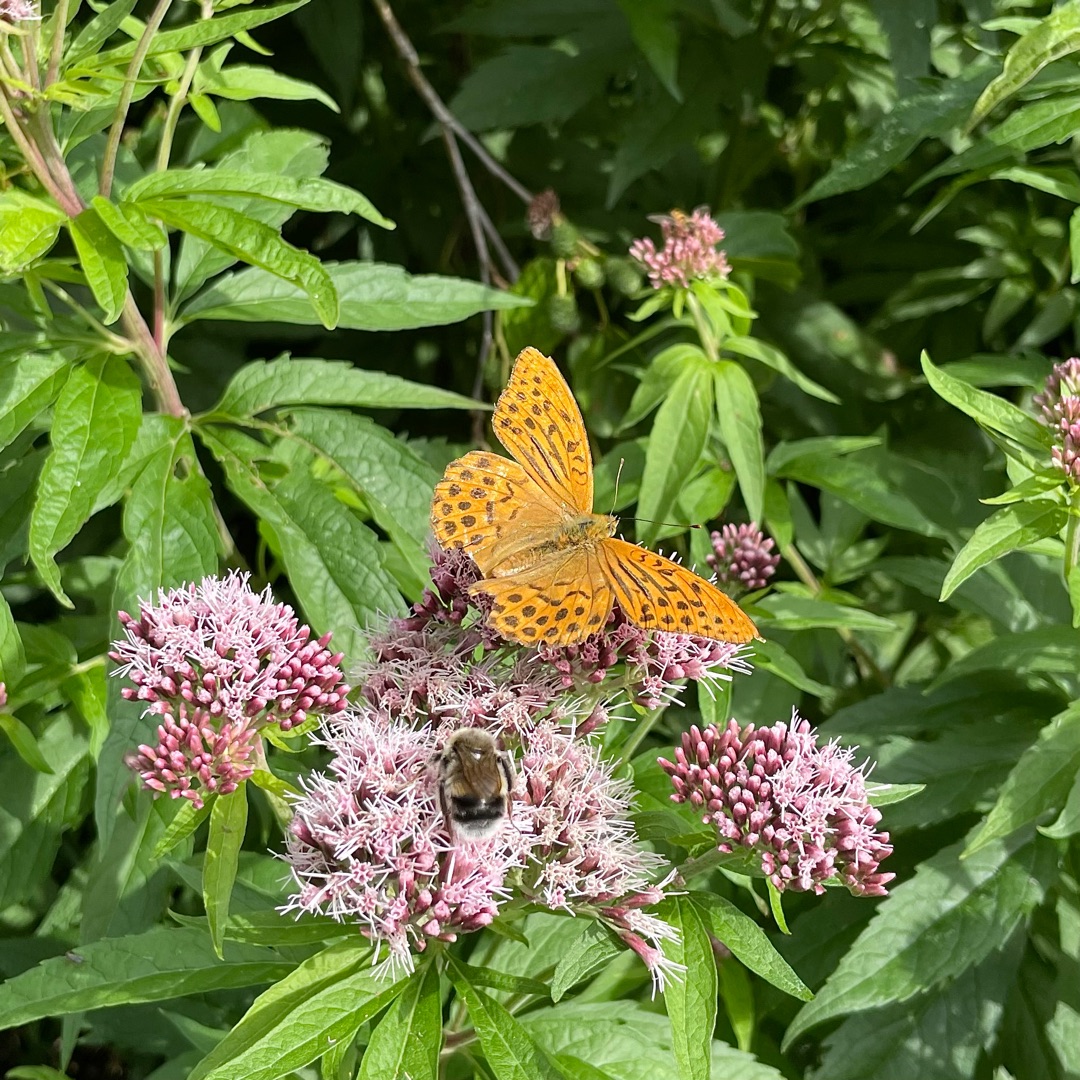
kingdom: Animalia
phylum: Arthropoda
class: Insecta
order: Lepidoptera
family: Nymphalidae
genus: Argynnis
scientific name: Argynnis paphia
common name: Kejserkåbe
